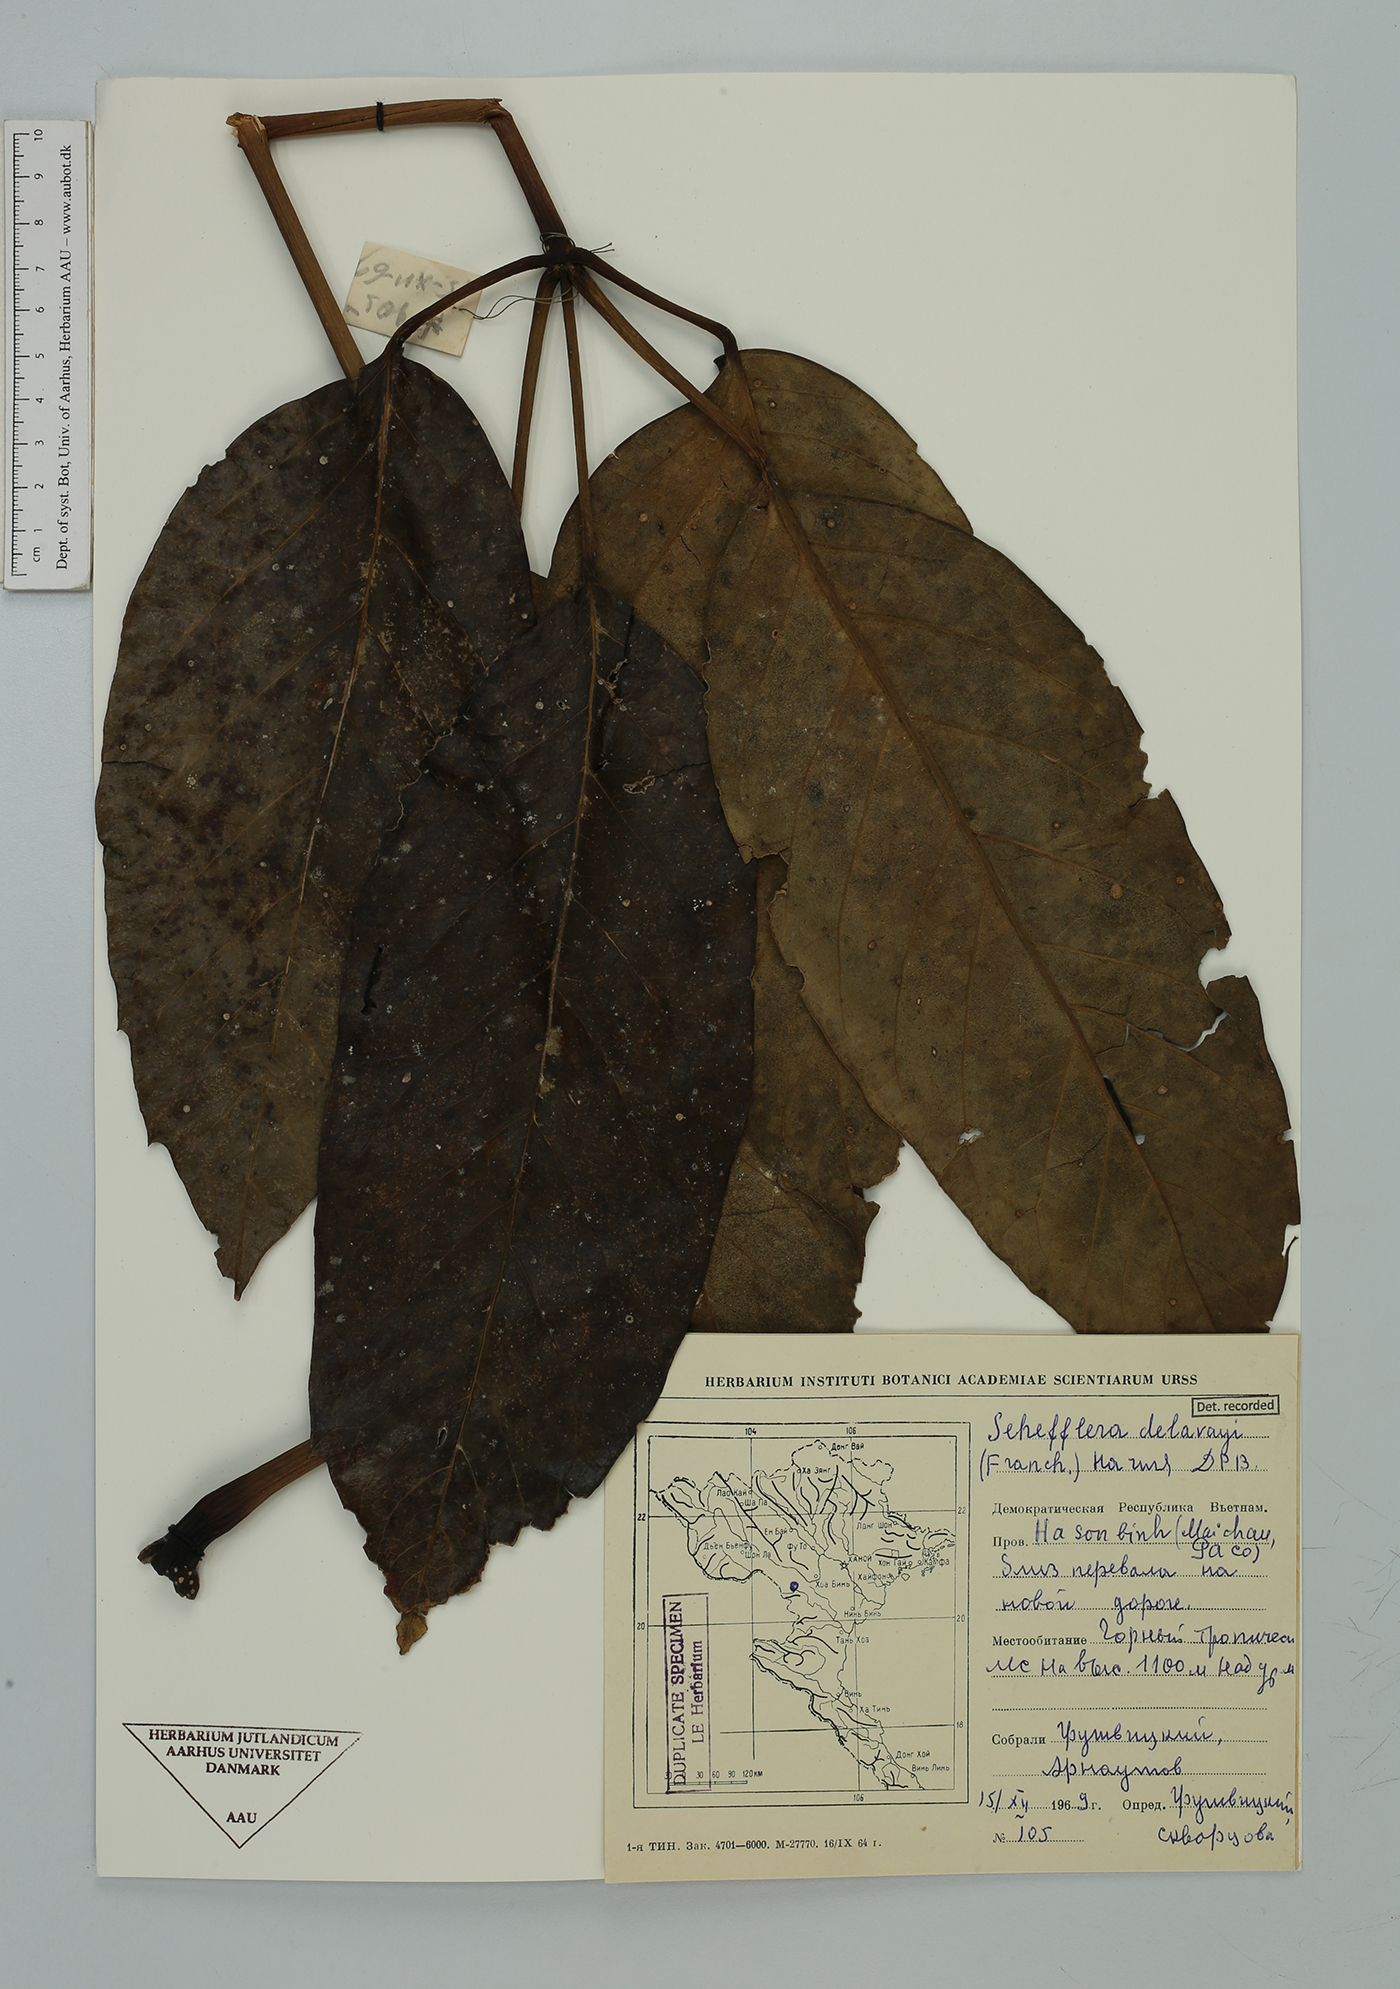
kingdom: Plantae
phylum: Tracheophyta
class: Magnoliopsida
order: Apiales
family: Araliaceae
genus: Heptapleurum
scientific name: Heptapleurum delavayi
